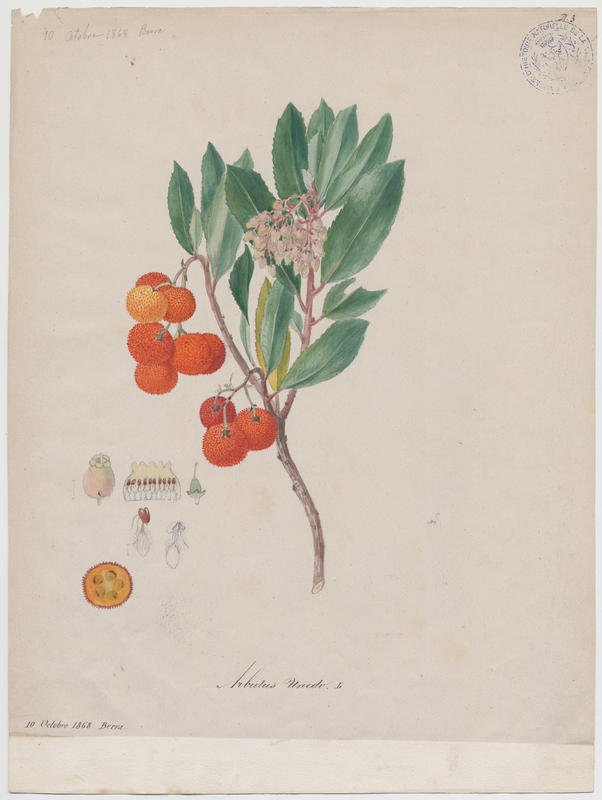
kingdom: Plantae
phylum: Tracheophyta
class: Magnoliopsida
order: Ericales
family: Ericaceae
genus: Arbutus
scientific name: Arbutus unedo
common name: Strawberry-tree
